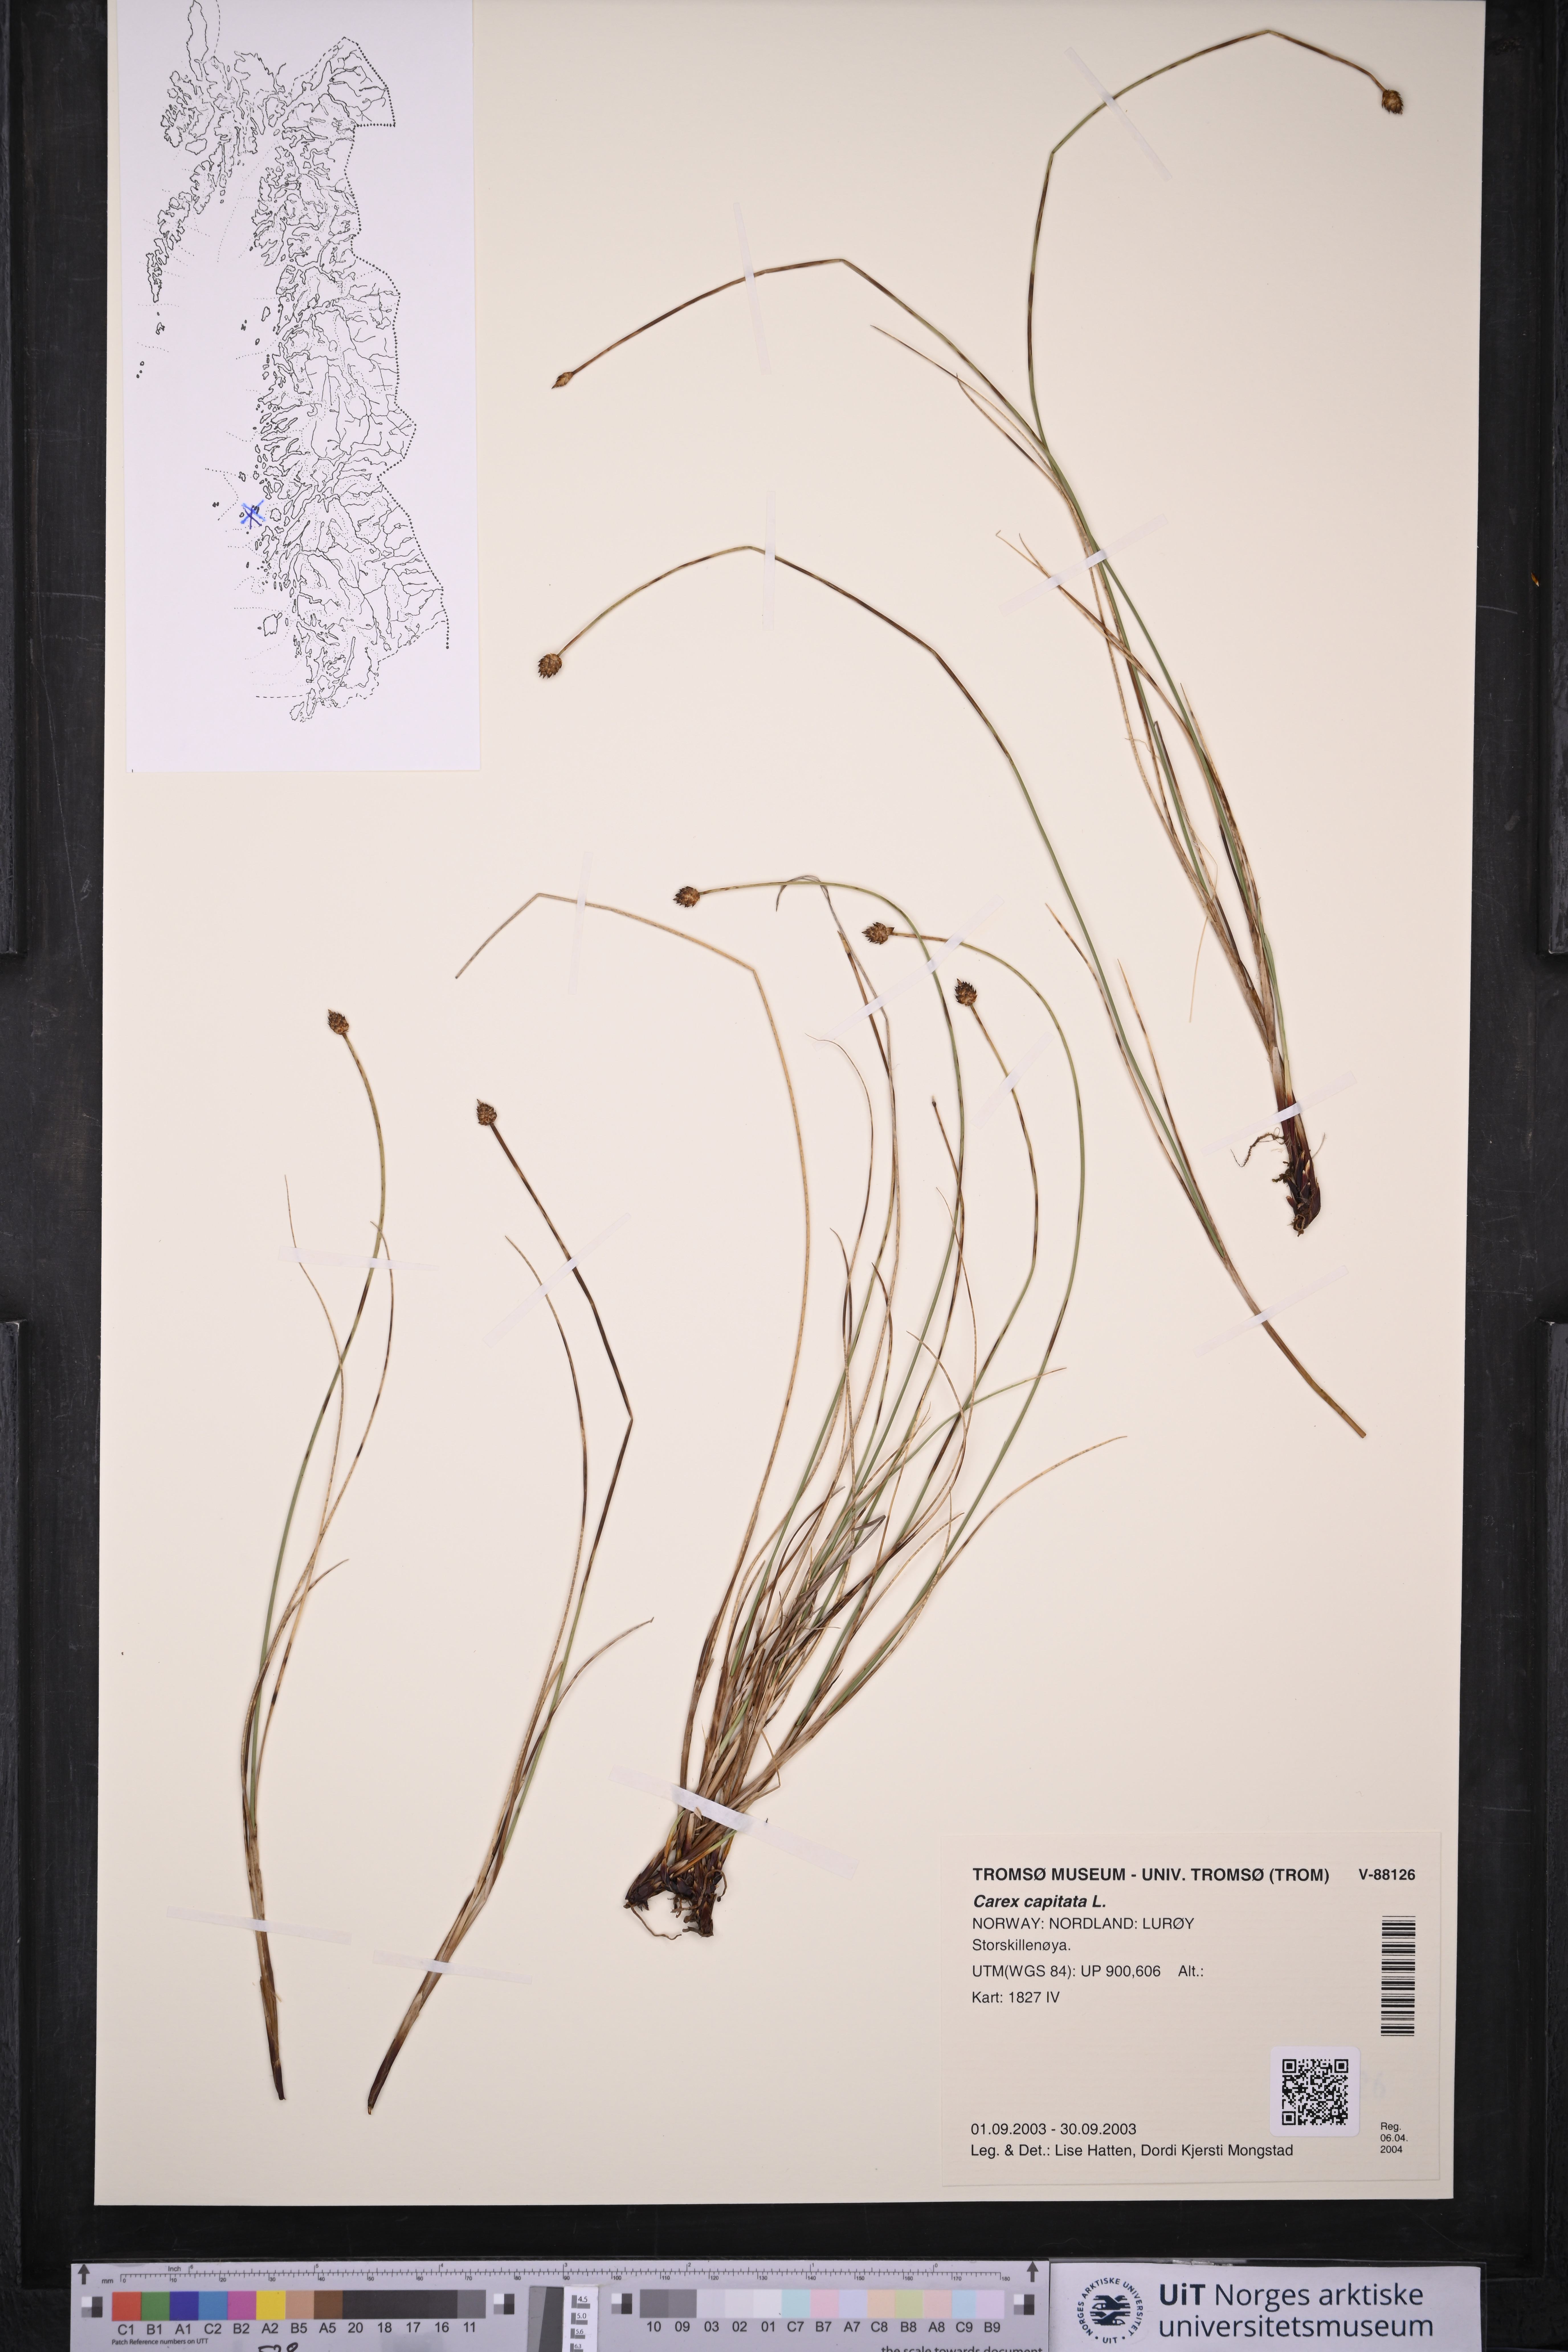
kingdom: Plantae
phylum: Tracheophyta
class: Liliopsida
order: Poales
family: Cyperaceae
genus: Carex
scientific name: Carex capitata
